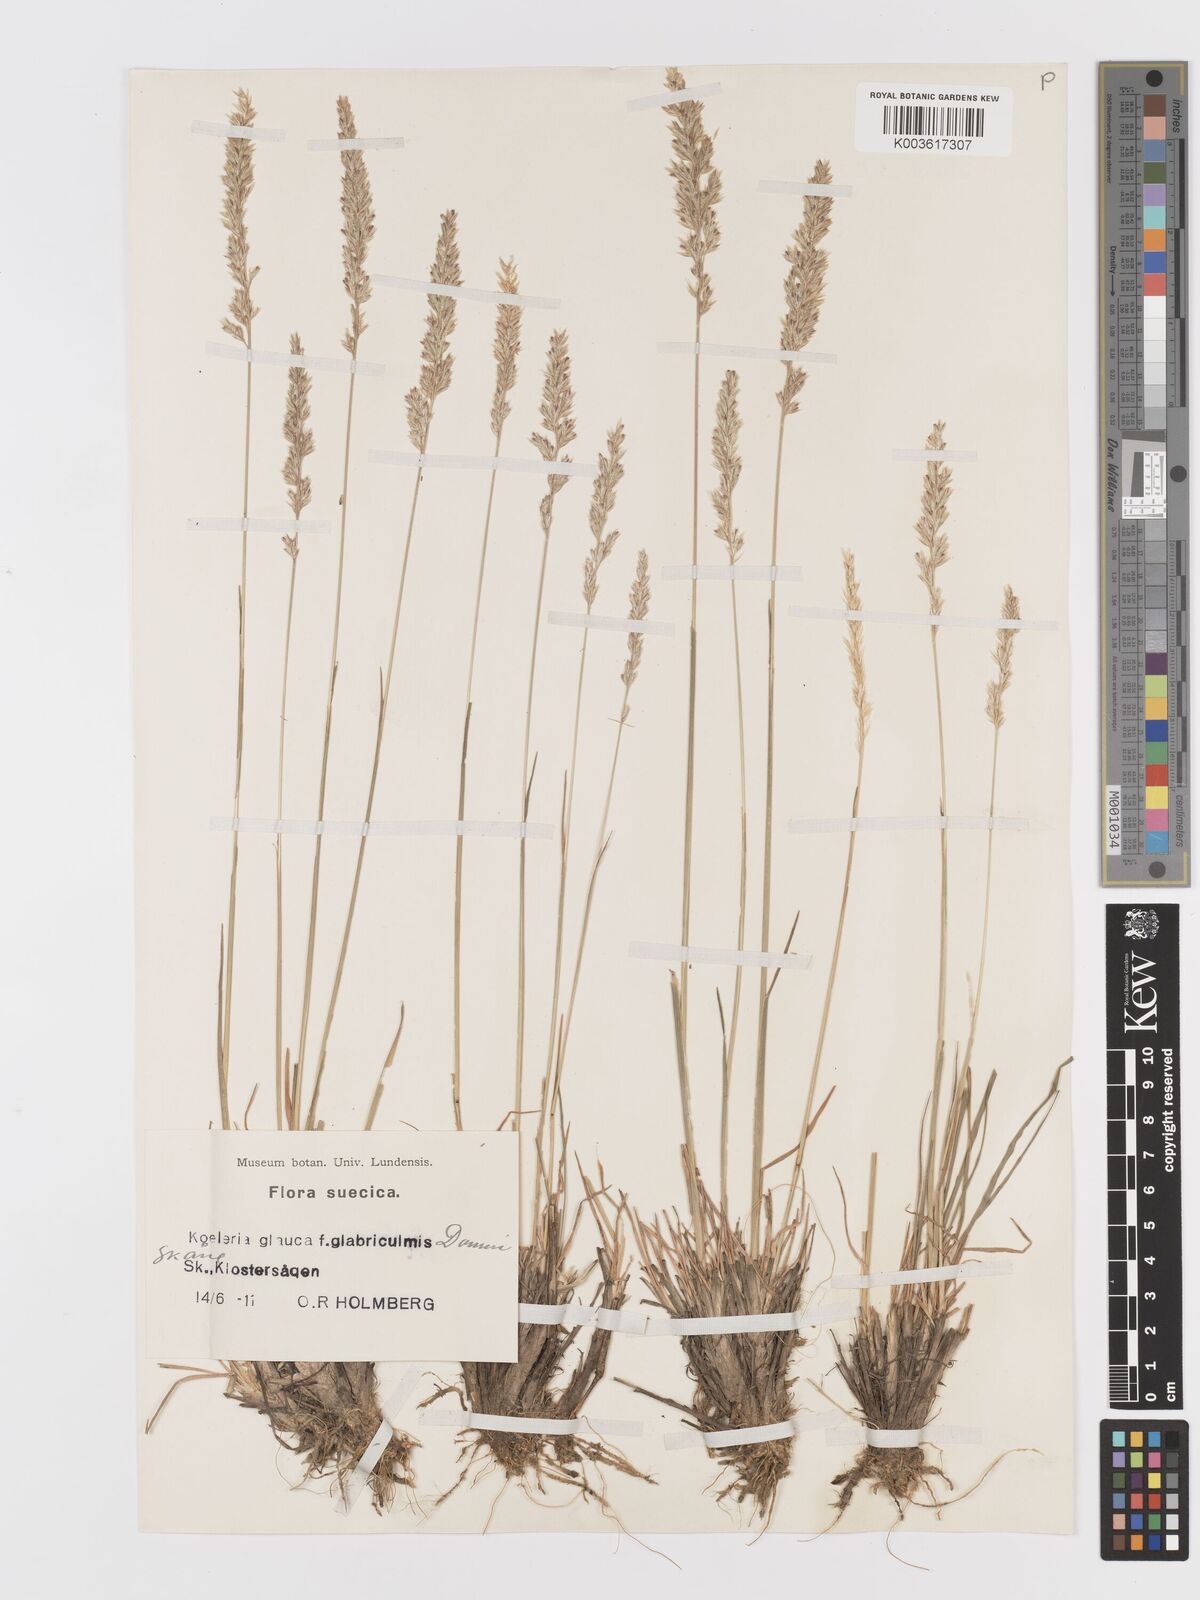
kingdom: Plantae
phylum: Tracheophyta
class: Liliopsida
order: Poales
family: Poaceae
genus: Koeleria
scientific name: Koeleria glauca
